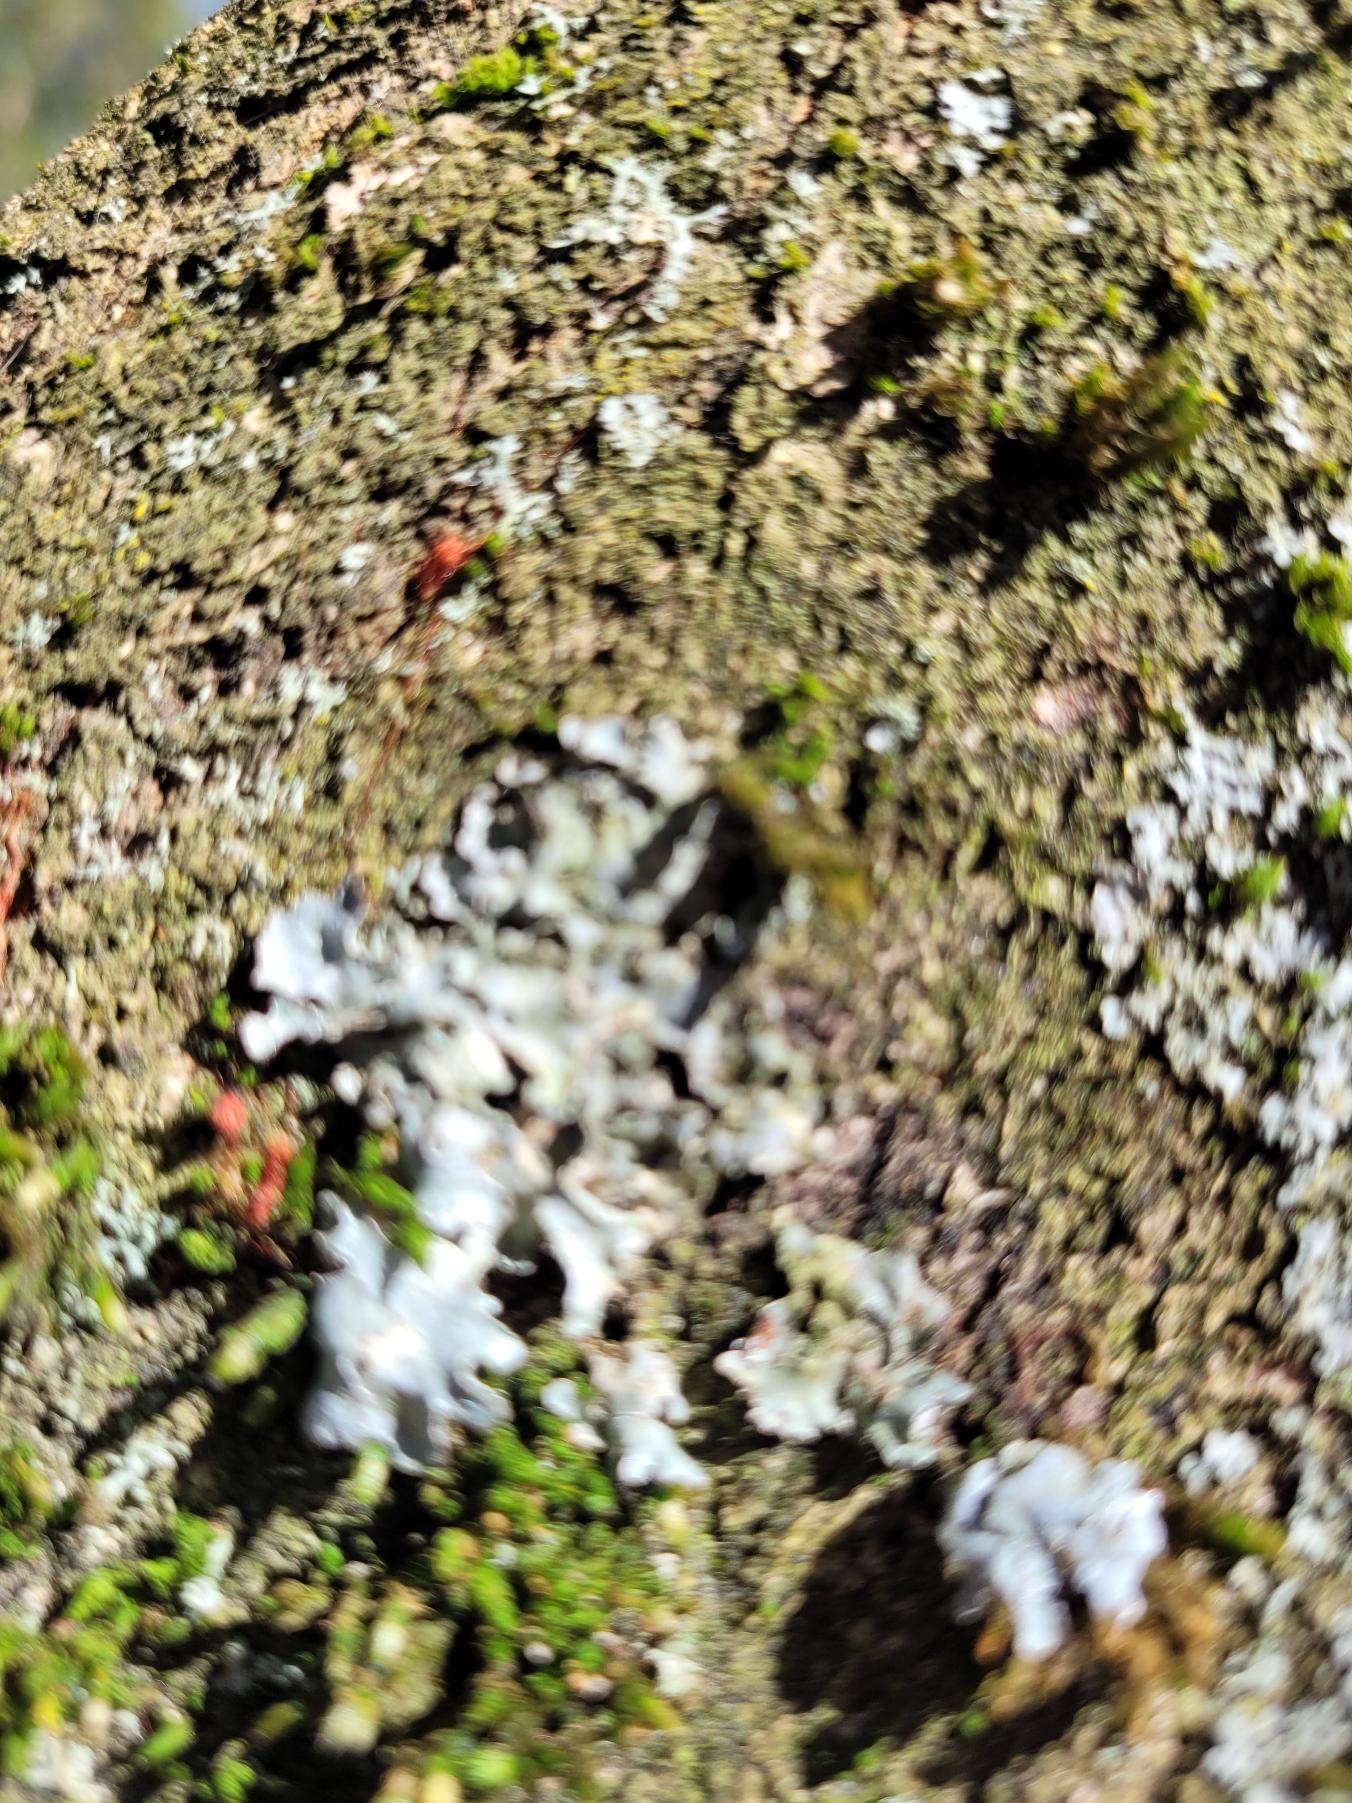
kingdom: Fungi
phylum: Ascomycota
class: Lecanoromycetes
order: Lecanorales
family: Parmeliaceae
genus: Parmelia
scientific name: Parmelia sulcata
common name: Rynket skållav
